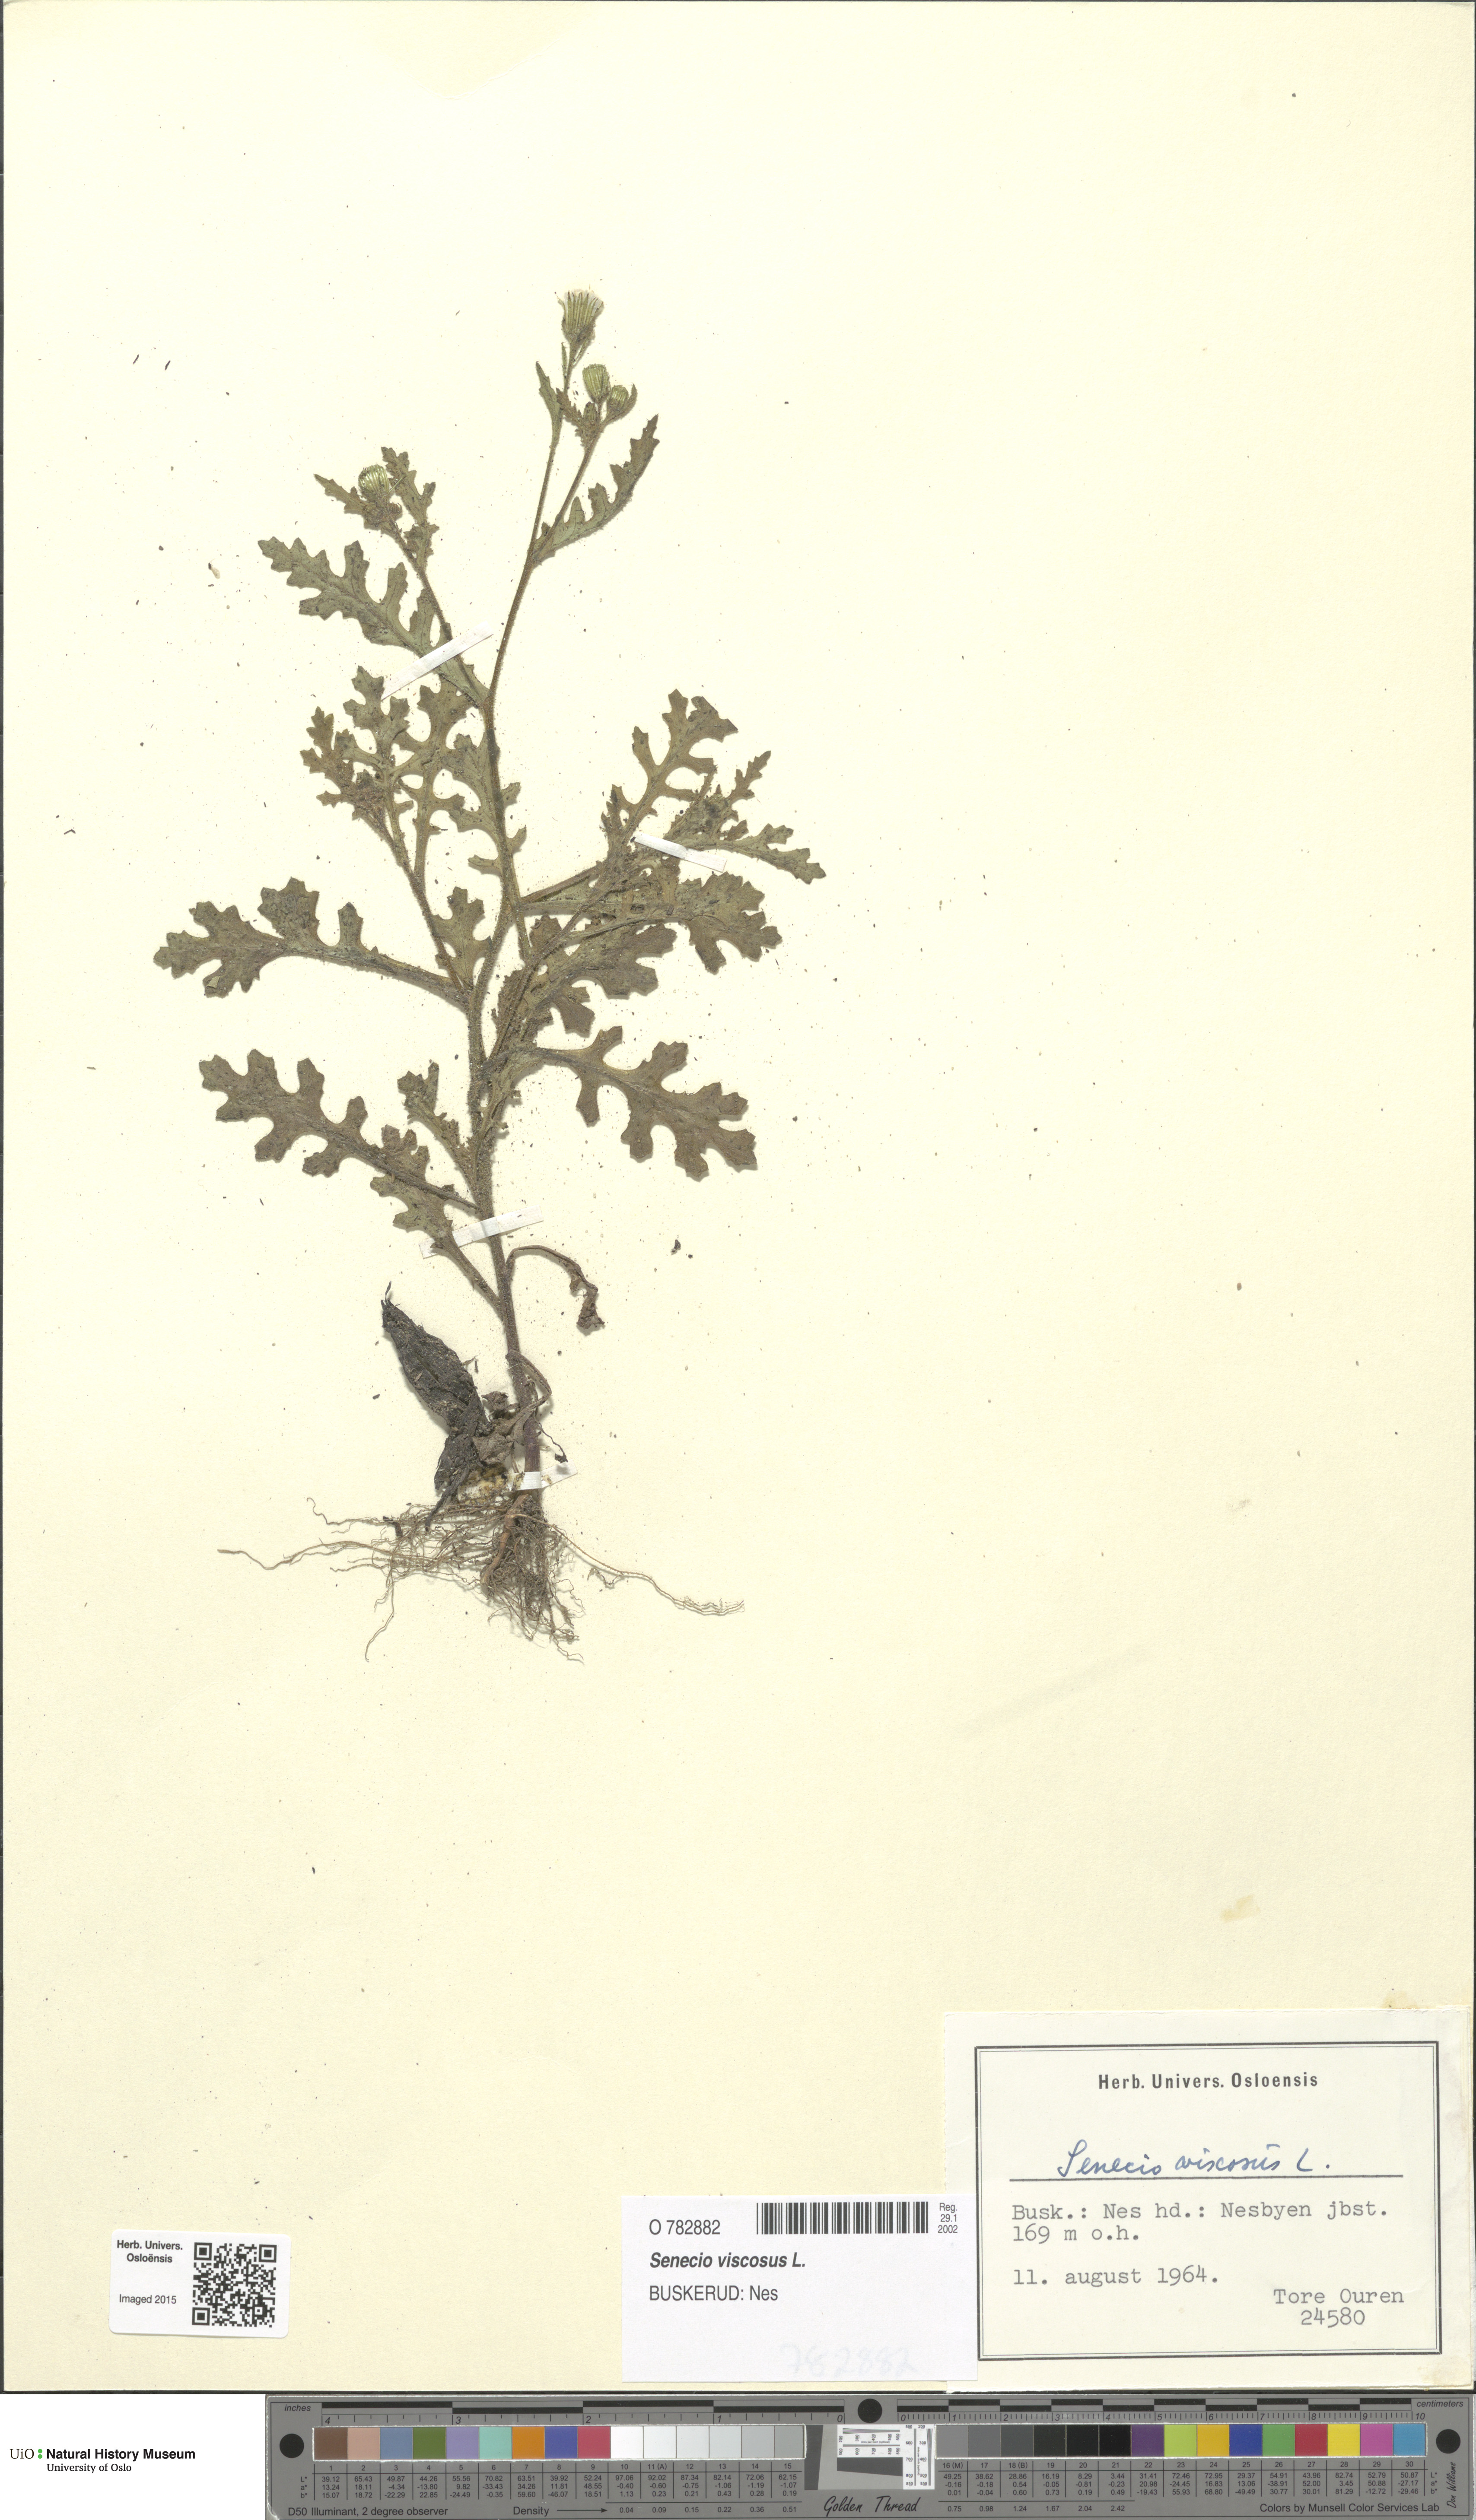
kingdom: Plantae
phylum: Tracheophyta
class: Magnoliopsida
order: Asterales
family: Asteraceae
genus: Senecio
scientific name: Senecio viscosus
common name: Sticky groundsel
